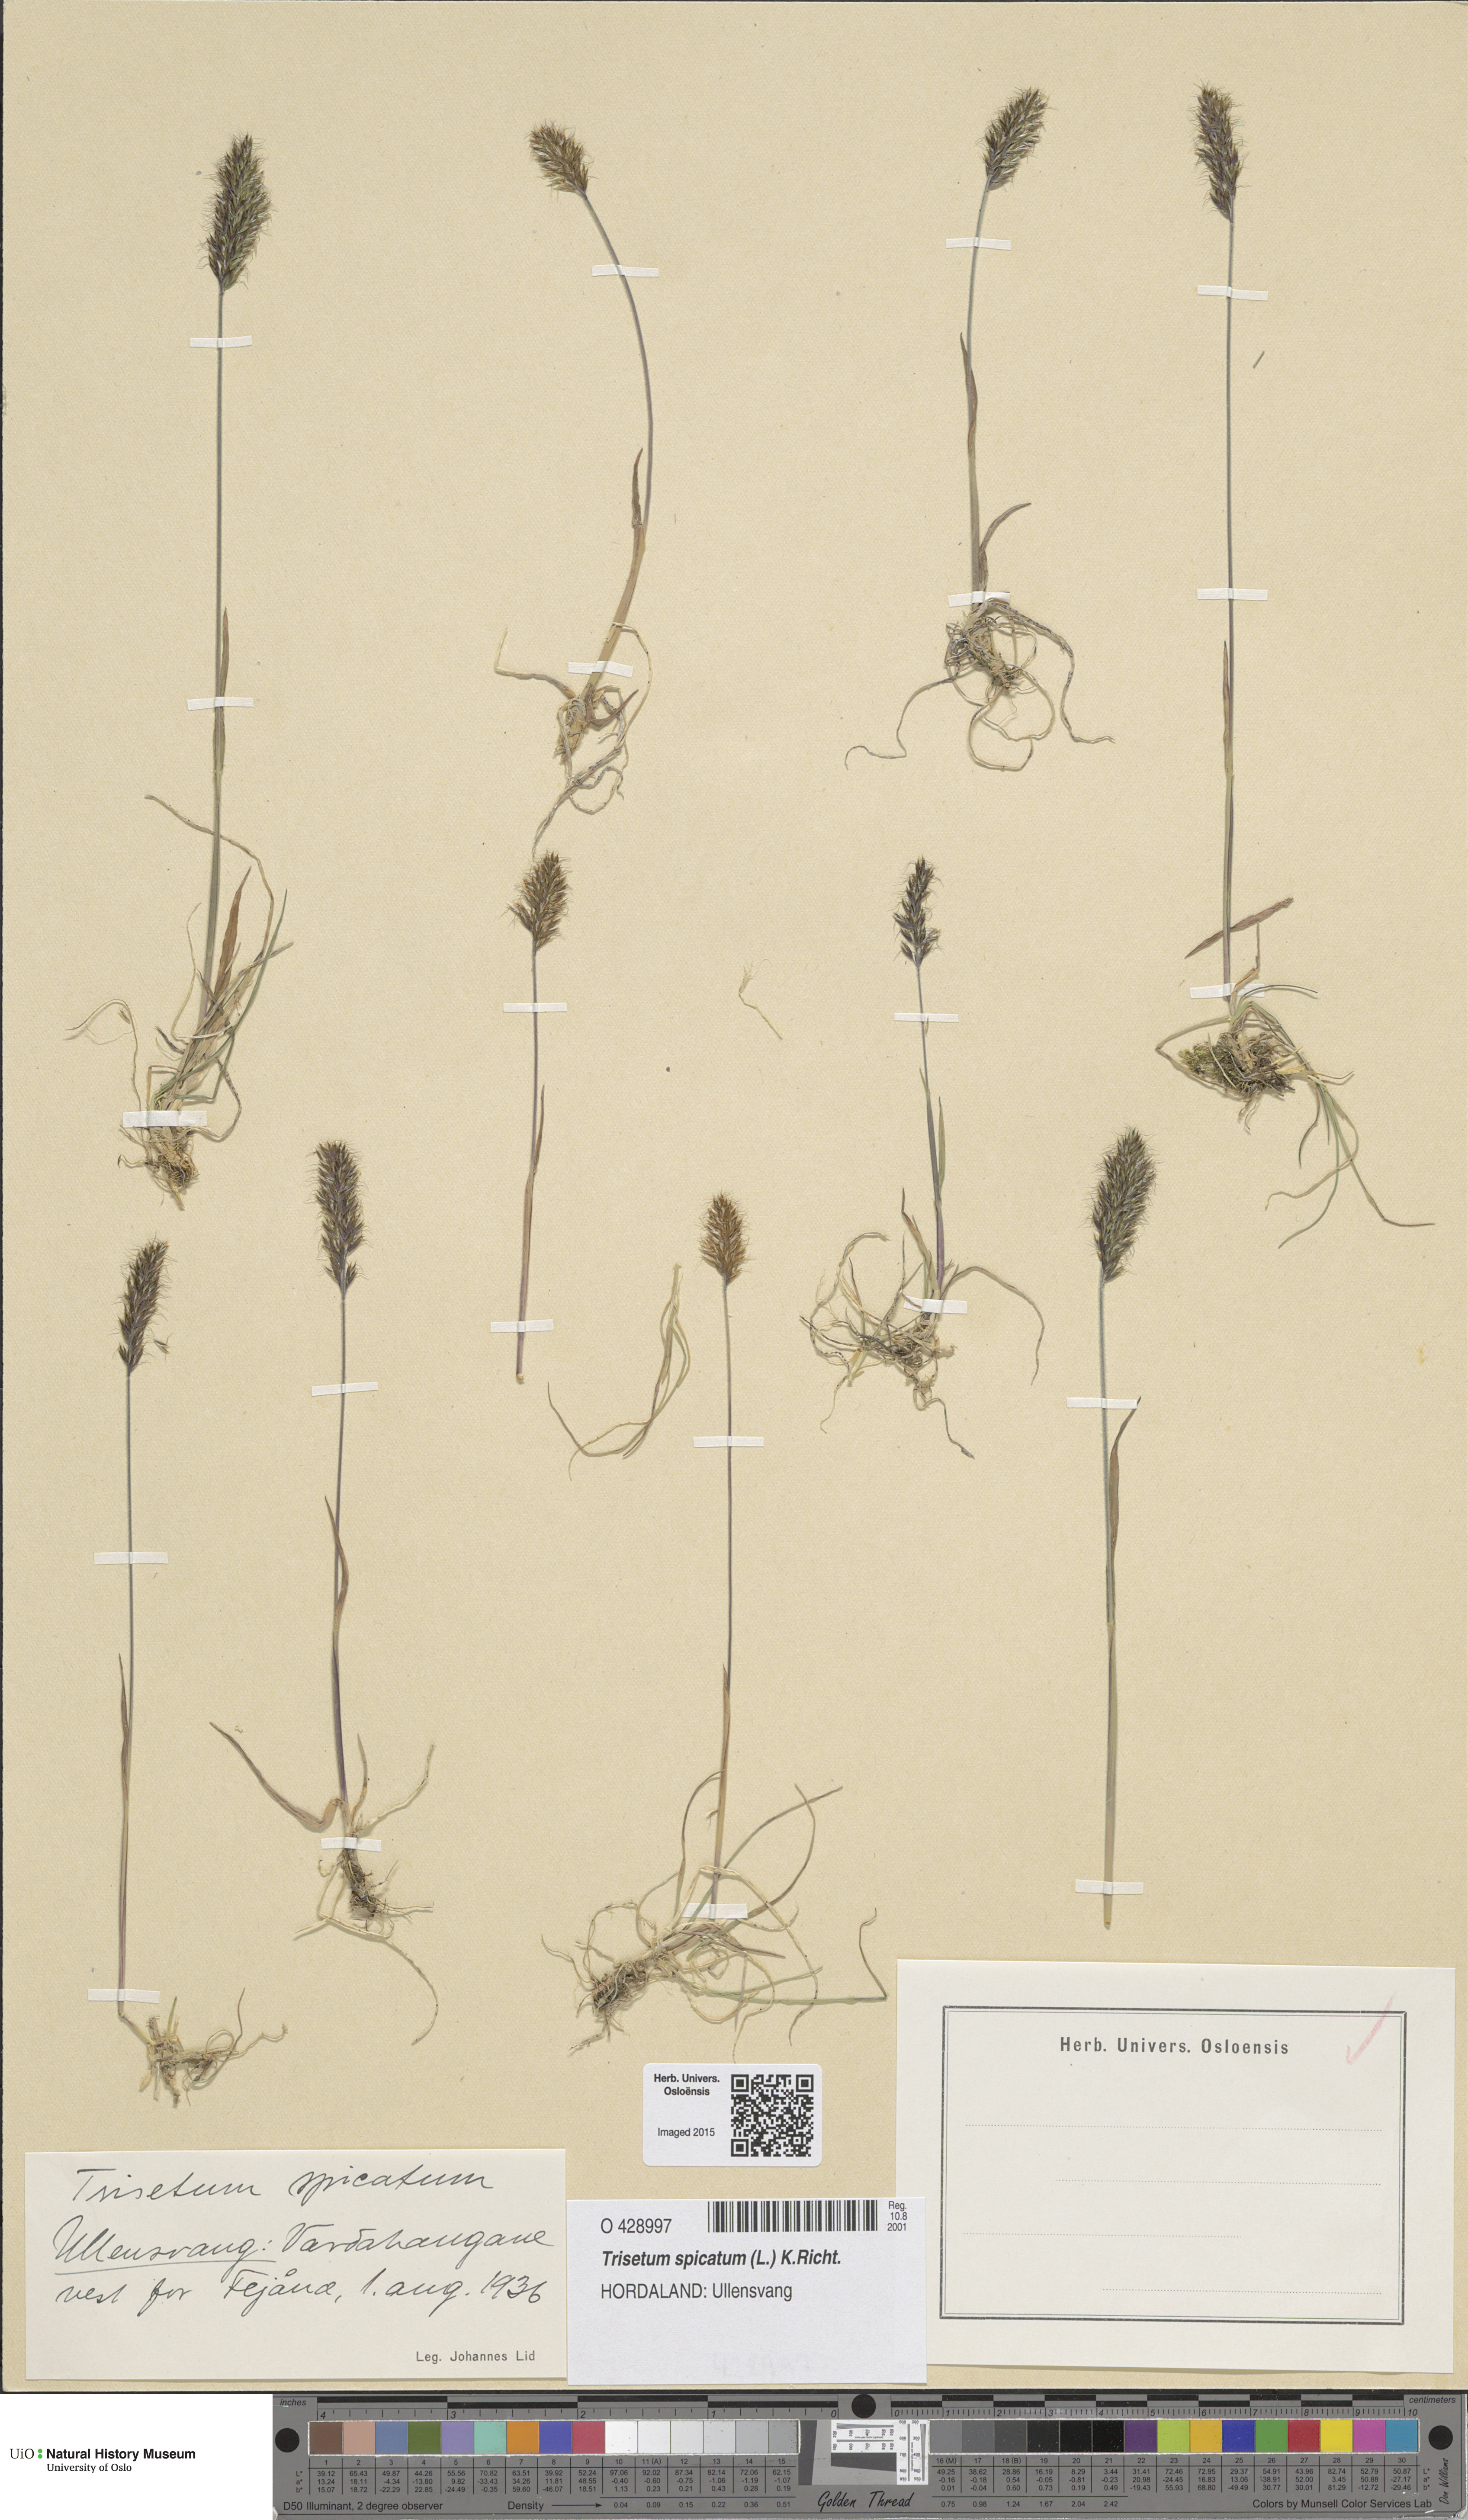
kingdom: Plantae
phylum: Tracheophyta
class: Liliopsida
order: Poales
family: Poaceae
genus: Koeleria
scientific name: Koeleria spicata
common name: Mountain trisetum
